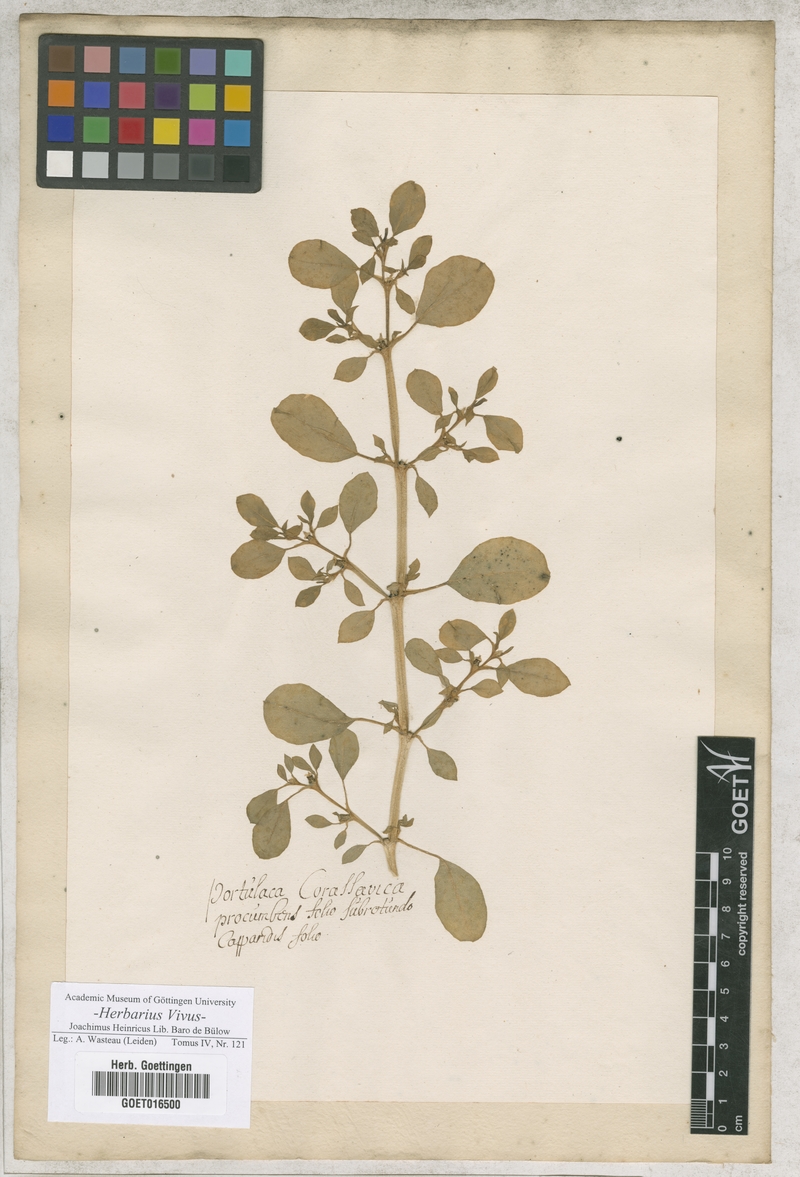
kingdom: Plantae
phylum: Tracheophyta
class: Magnoliopsida
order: Caryophyllales
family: Aizoaceae
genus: Trianthema
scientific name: Trianthema portulacastrum
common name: Desert horsepurslane
